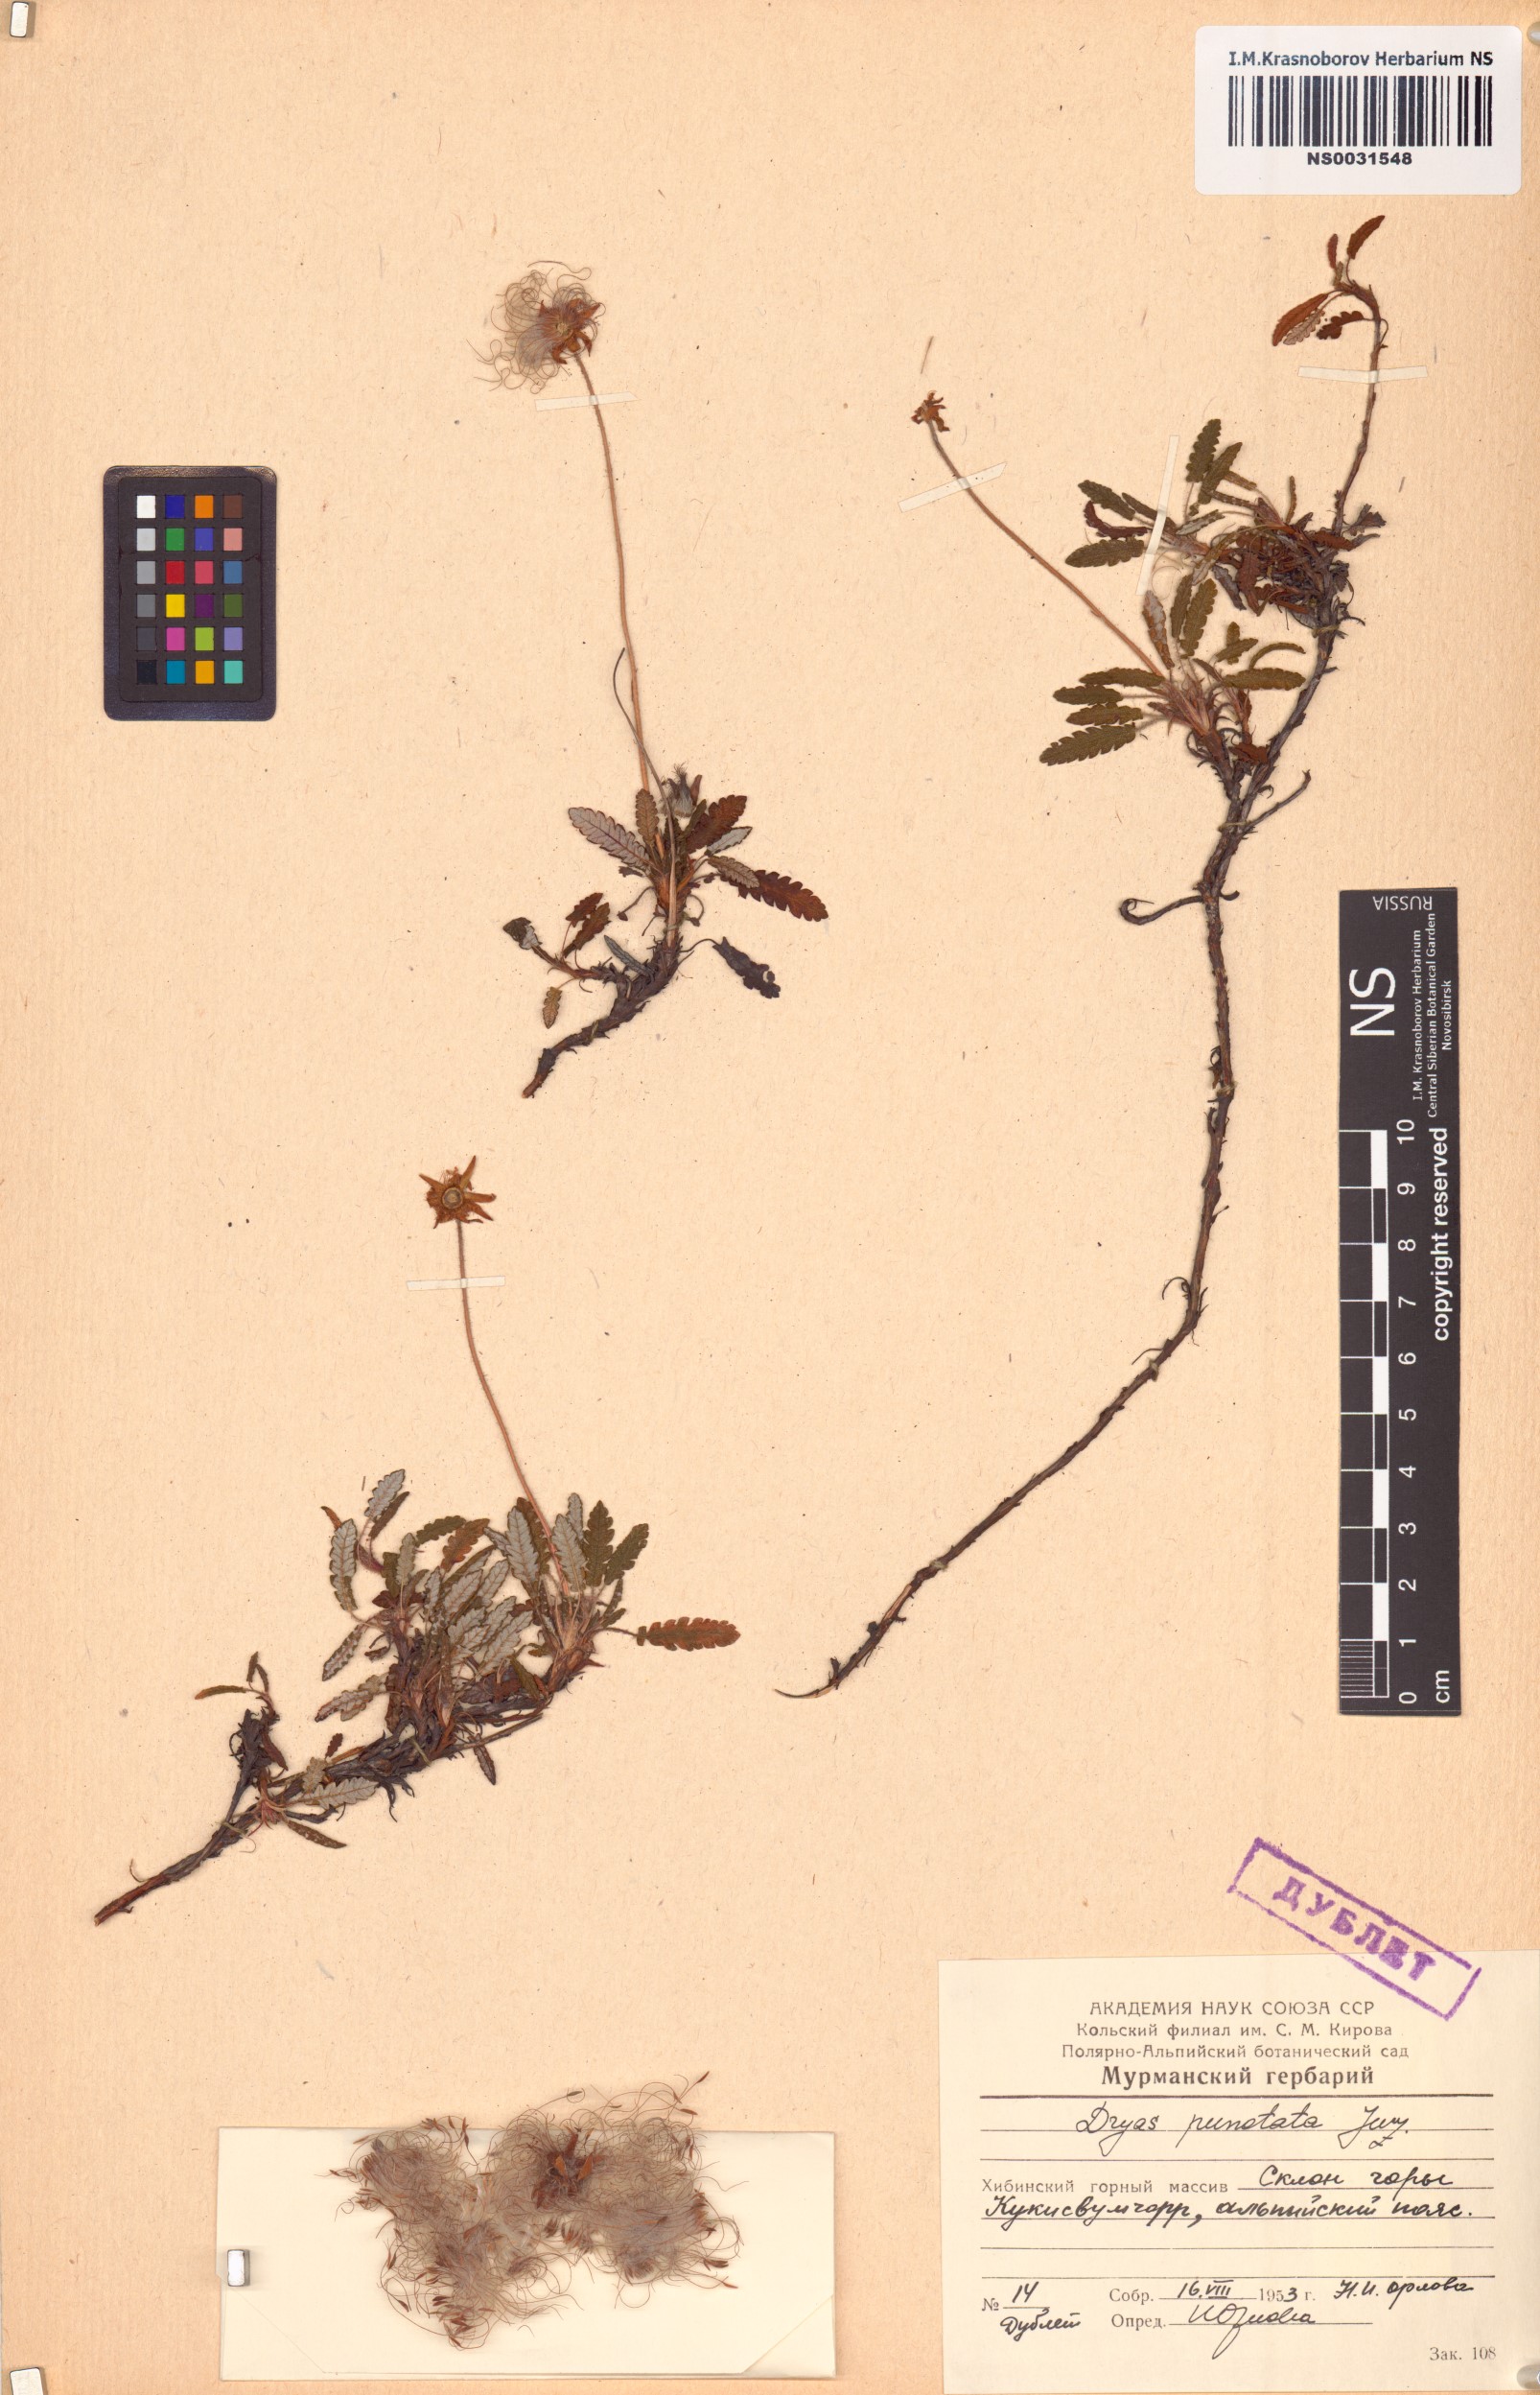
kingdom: Plantae
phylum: Tracheophyta
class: Magnoliopsida
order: Rosales
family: Rosaceae
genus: Dryas
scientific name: Dryas octopetala
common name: Eight-petal mountain-avens
